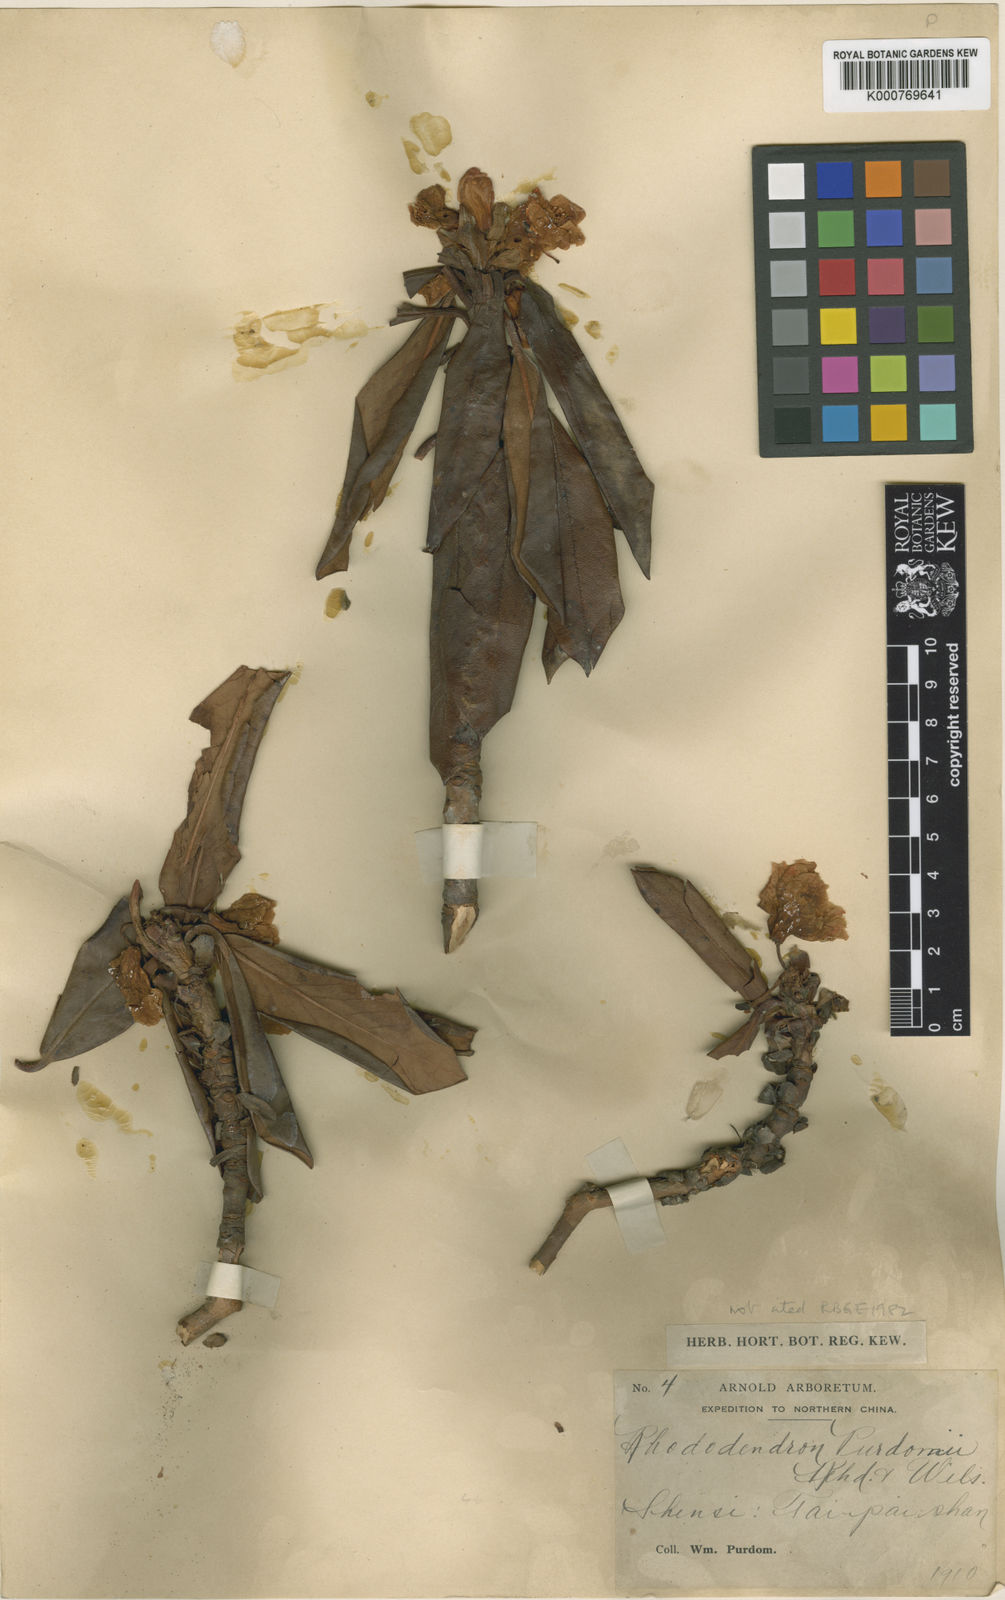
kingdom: Plantae
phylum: Tracheophyta
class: Magnoliopsida
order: Ericales
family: Ericaceae
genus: Rhododendron
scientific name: Rhododendron purdomii
